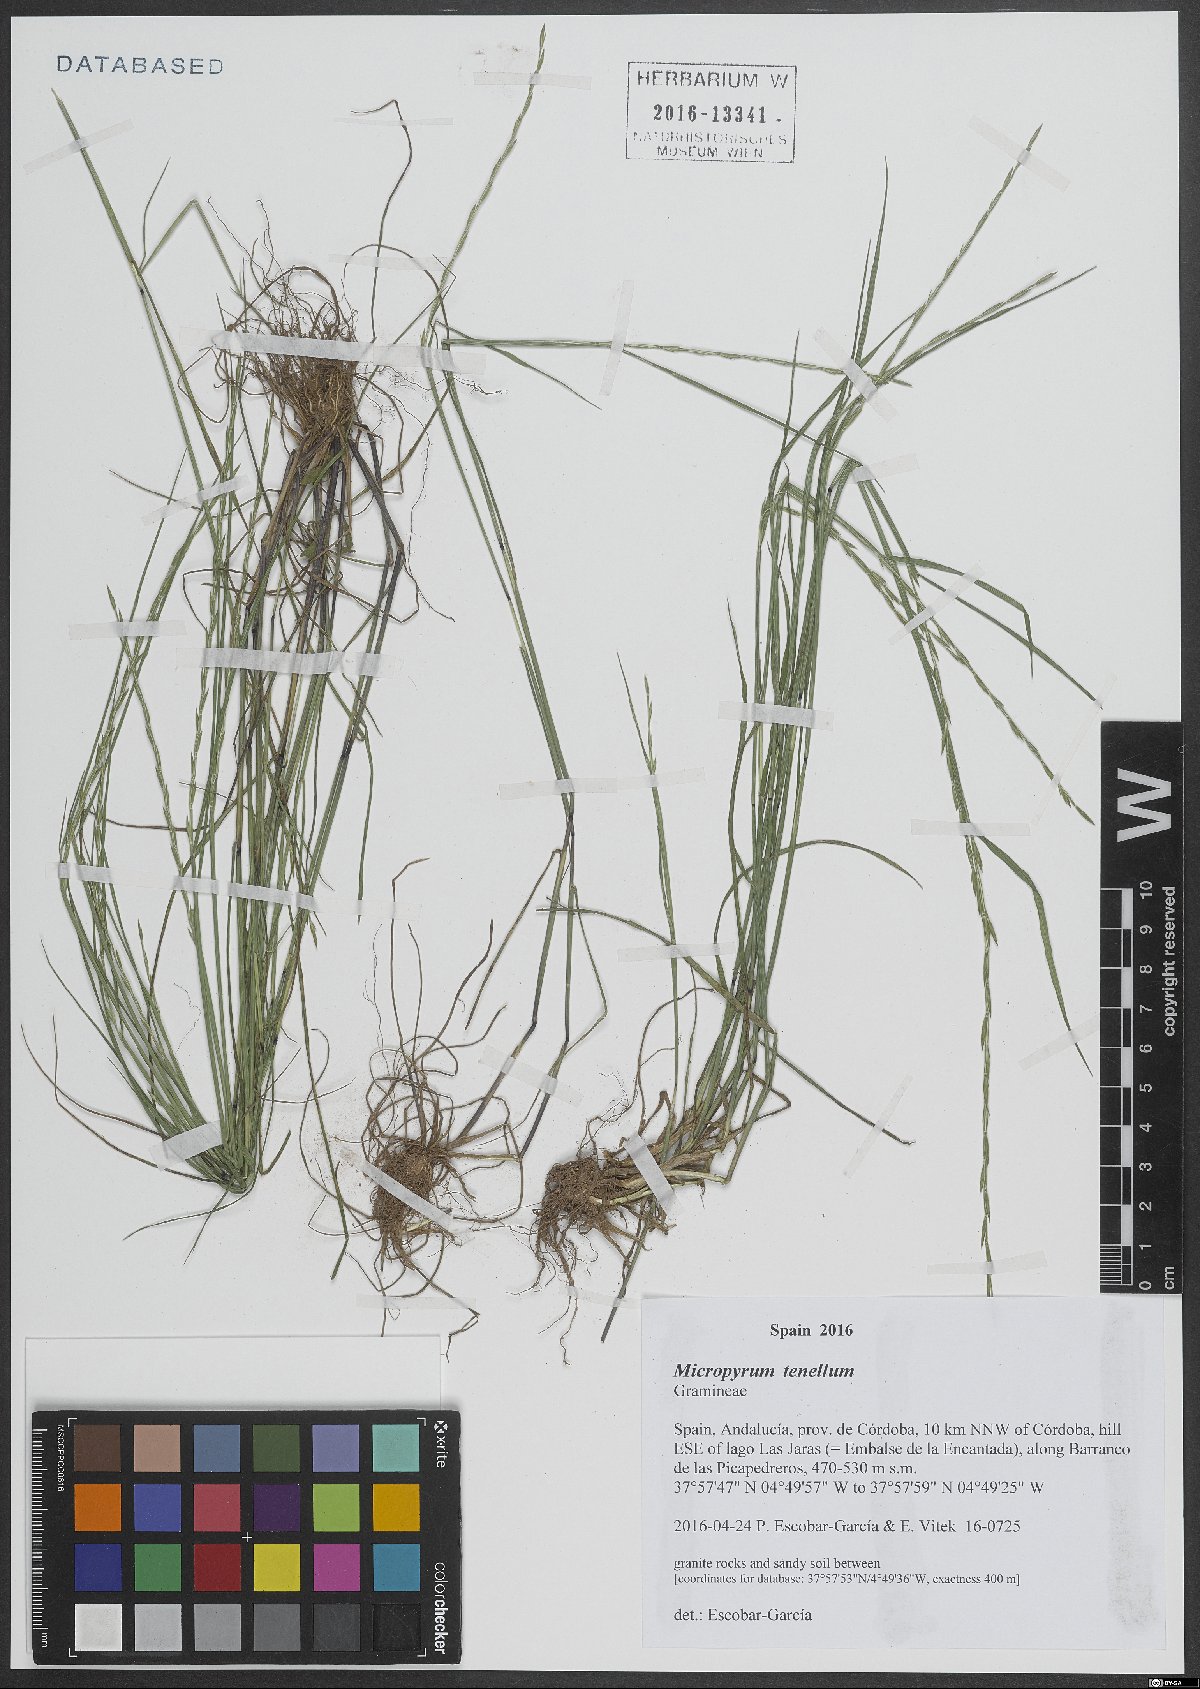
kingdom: Plantae
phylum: Tracheophyta
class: Liliopsida
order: Poales
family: Poaceae
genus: Festuca
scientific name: Festuca lachenalii
